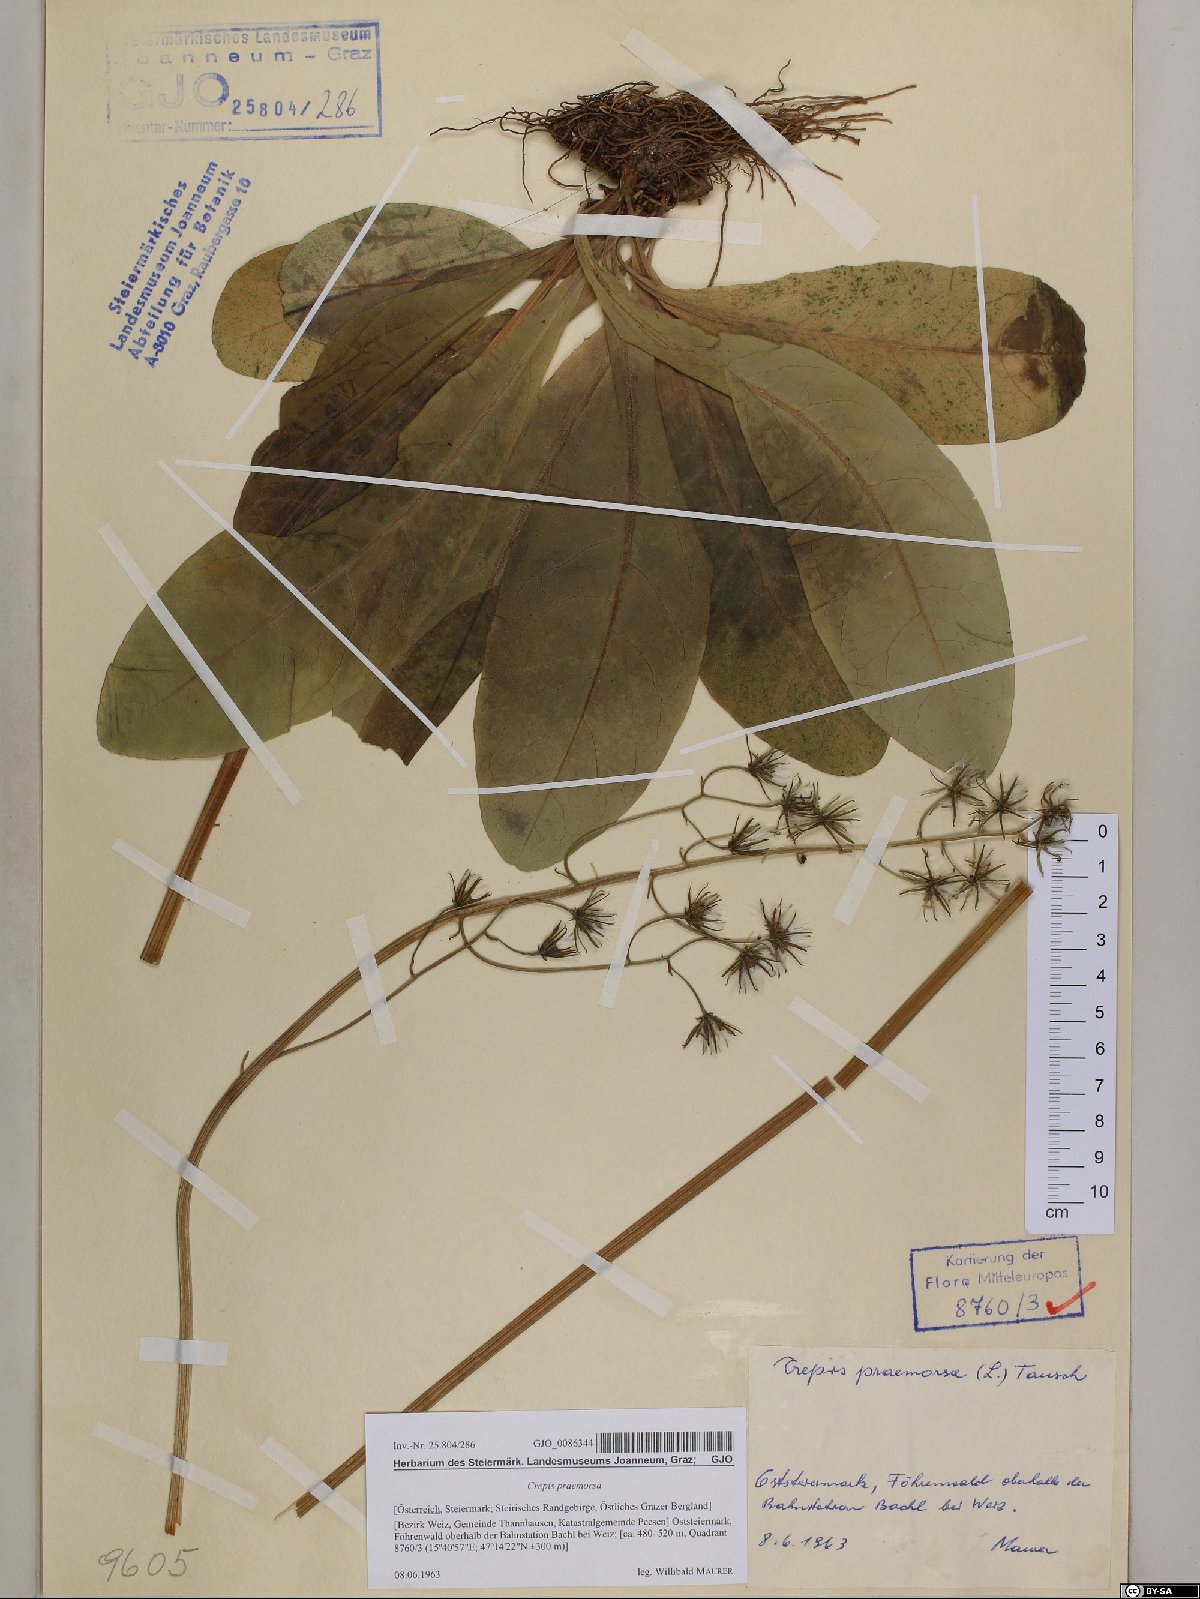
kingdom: Plantae
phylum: Tracheophyta
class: Magnoliopsida
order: Asterales
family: Asteraceae
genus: Crepis
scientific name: Crepis praemorsa
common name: Leafless hawk's-beard
